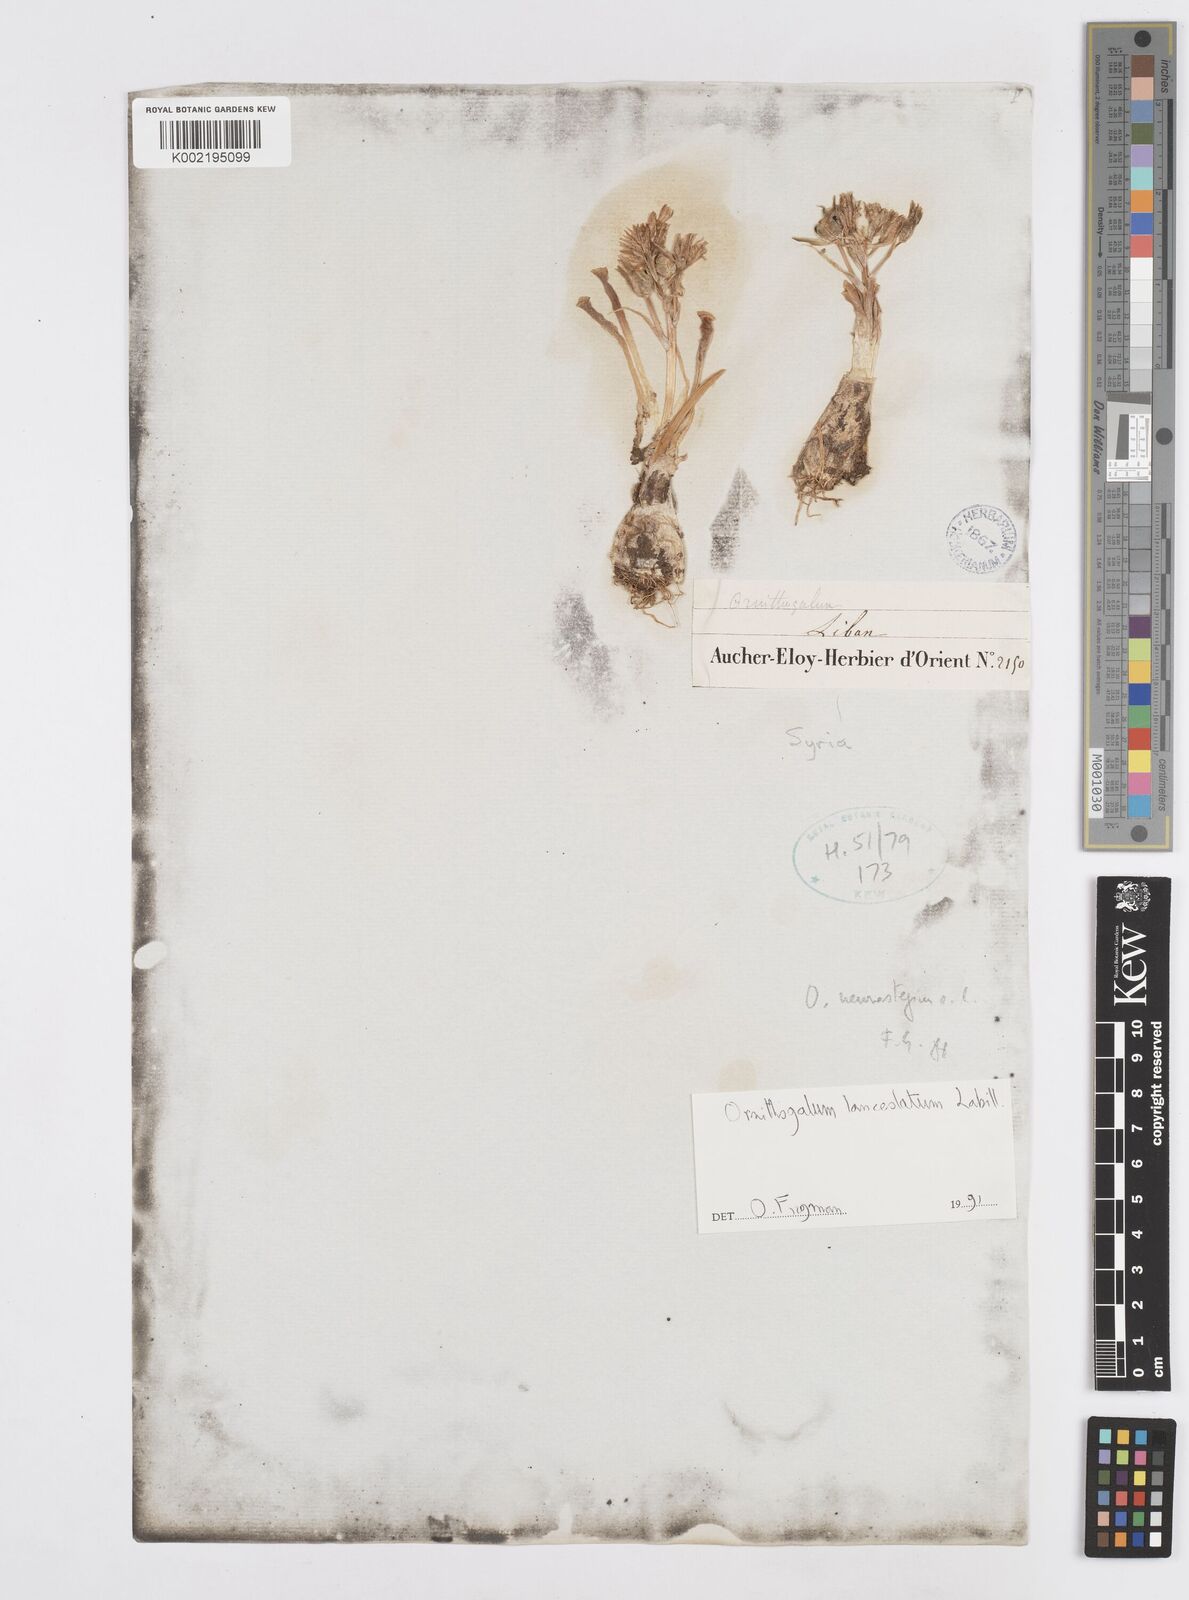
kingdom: Plantae
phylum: Tracheophyta
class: Liliopsida
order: Asparagales
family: Asparagaceae
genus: Ornithogalum
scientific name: Ornithogalum lanceolatum
